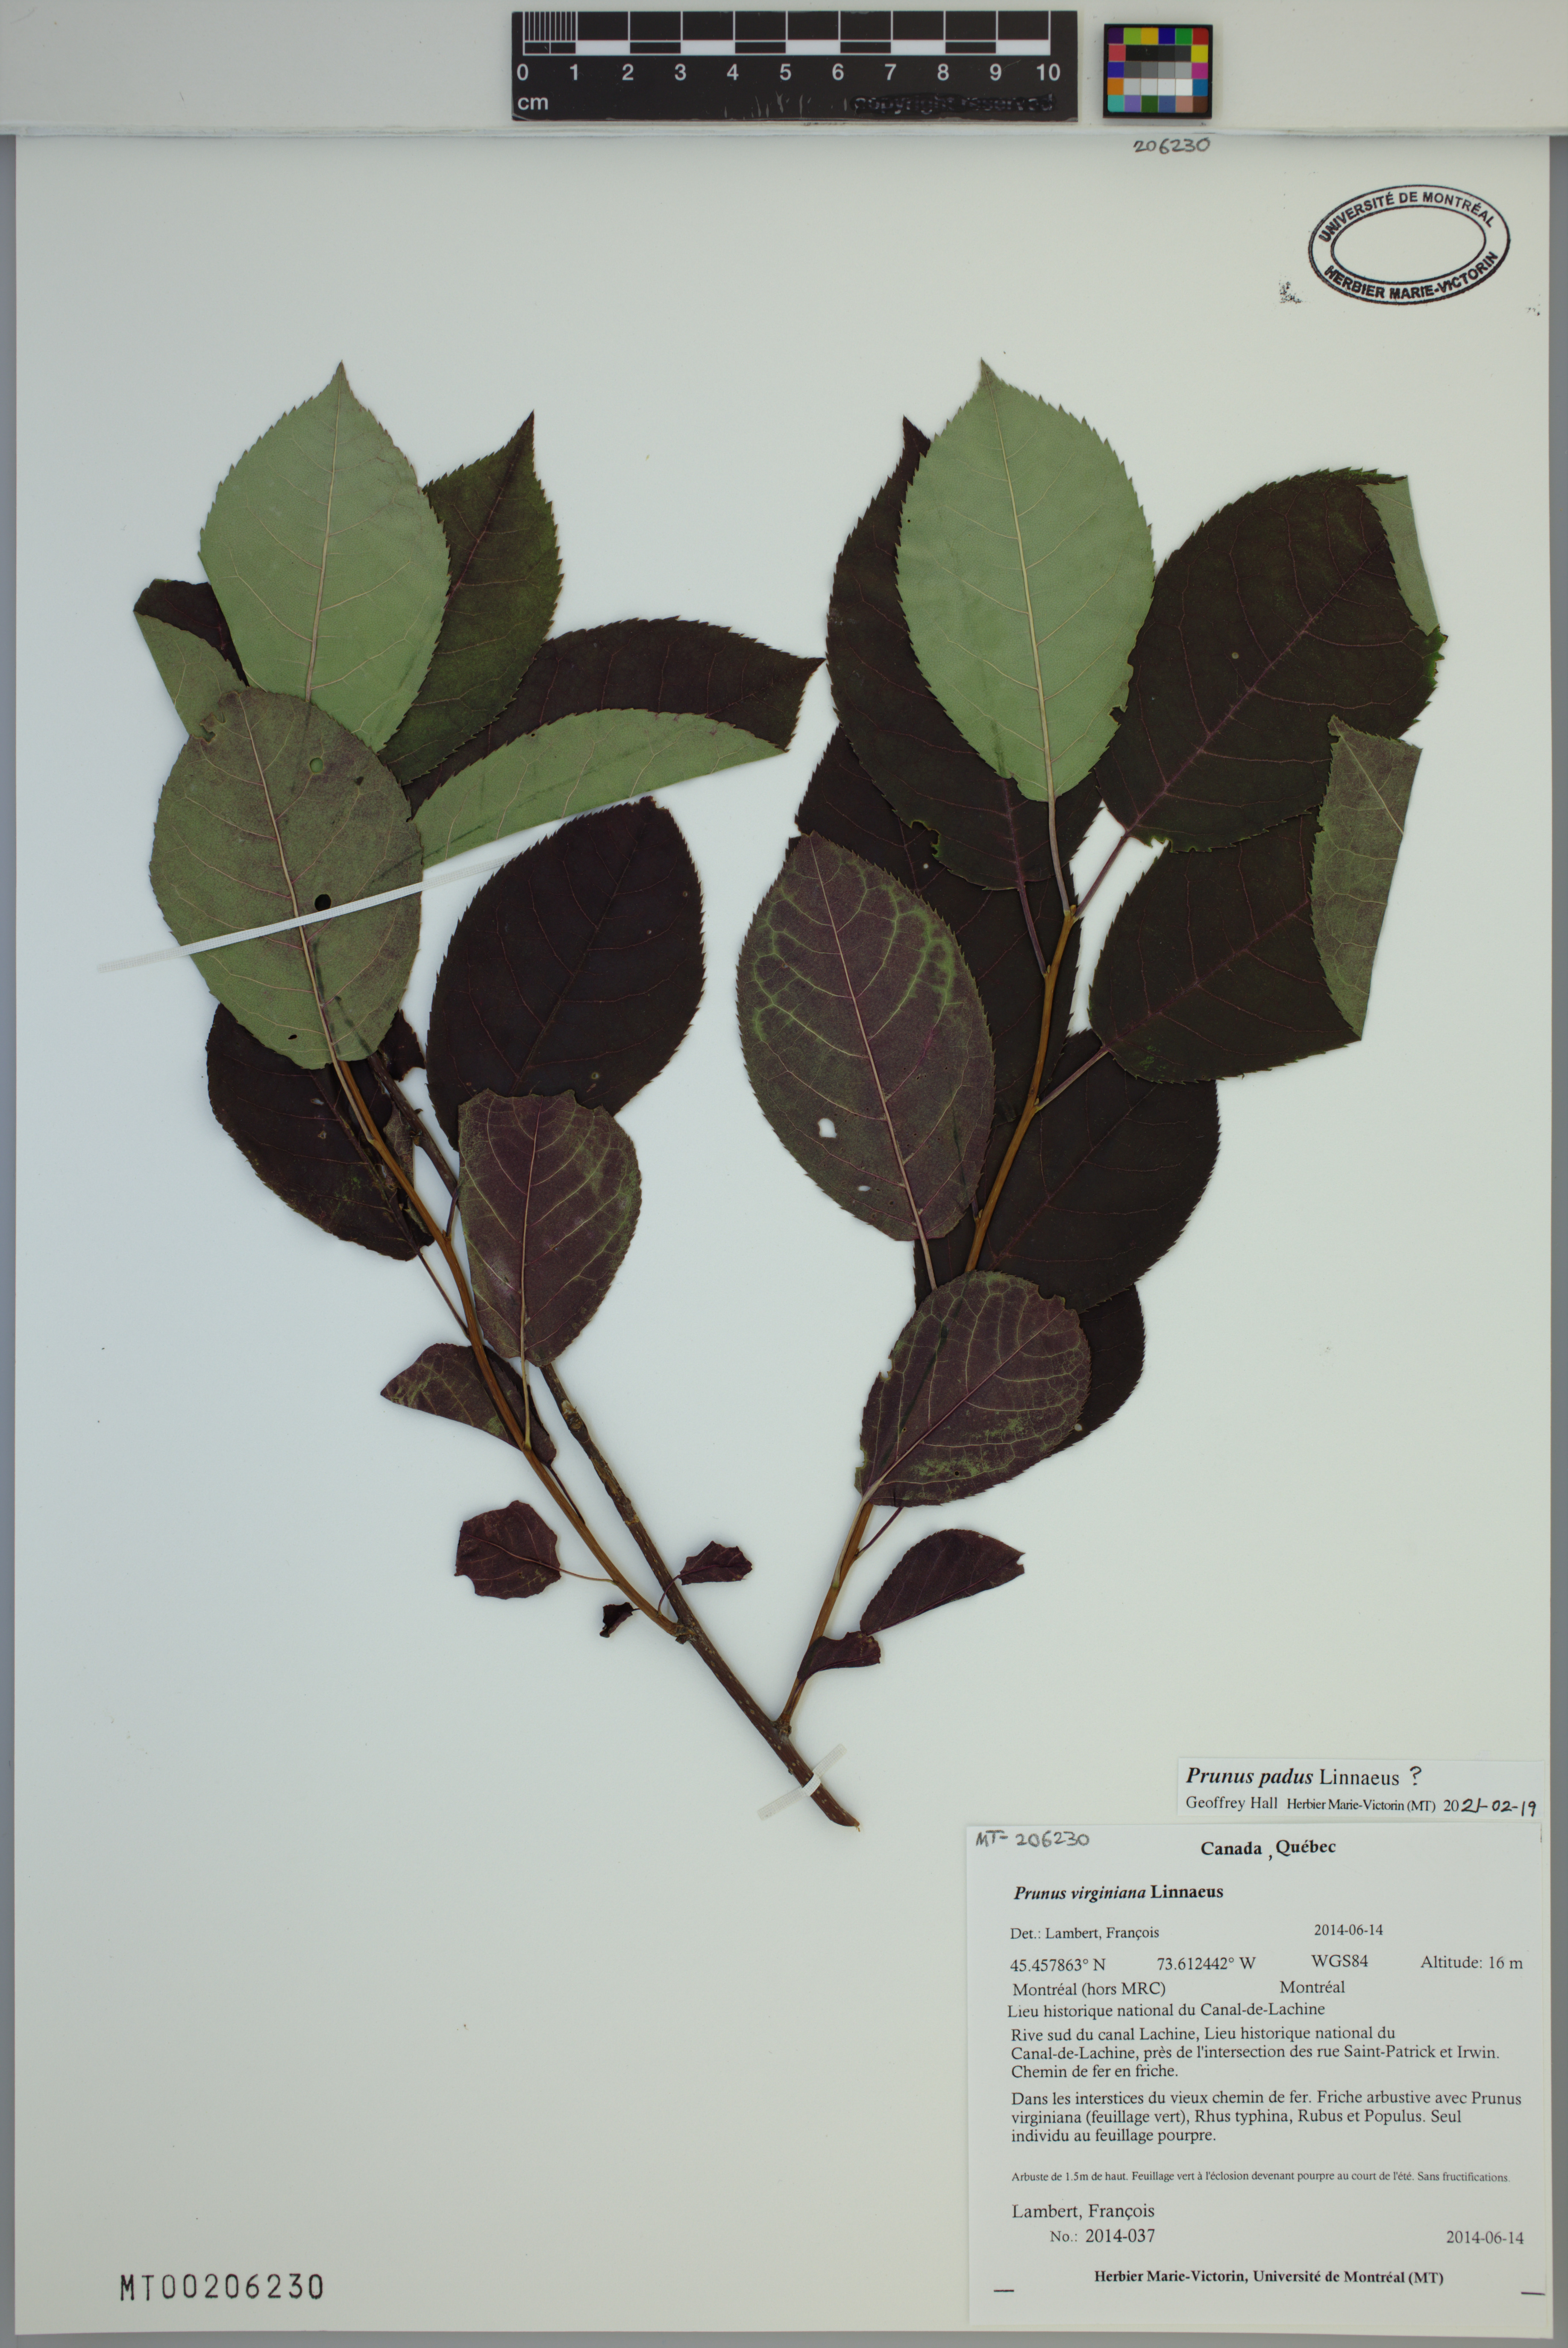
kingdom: Plantae
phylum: Tracheophyta
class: Magnoliopsida
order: Rosales
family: Rosaceae
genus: Prunus
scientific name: Prunus padus
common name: Bird cherry
